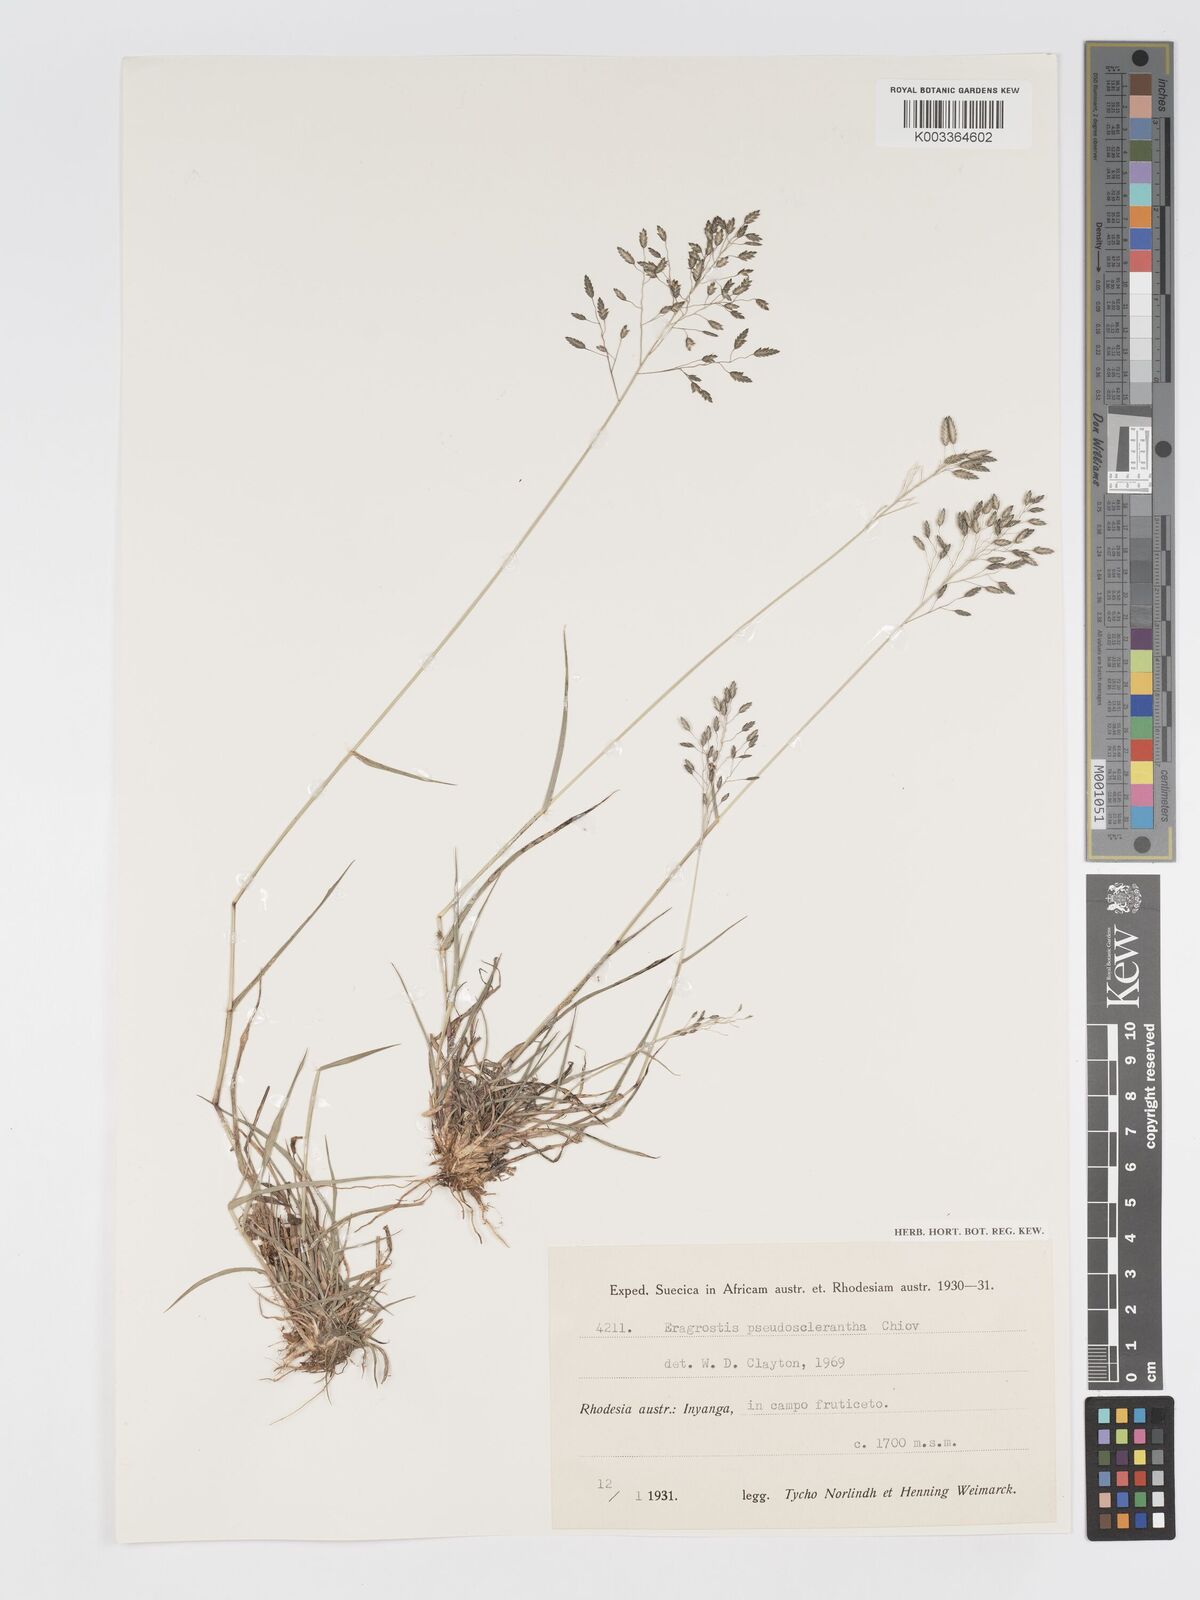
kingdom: Plantae
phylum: Tracheophyta
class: Liliopsida
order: Poales
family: Poaceae
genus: Eragrostis
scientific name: Eragrostis patentipilosa
